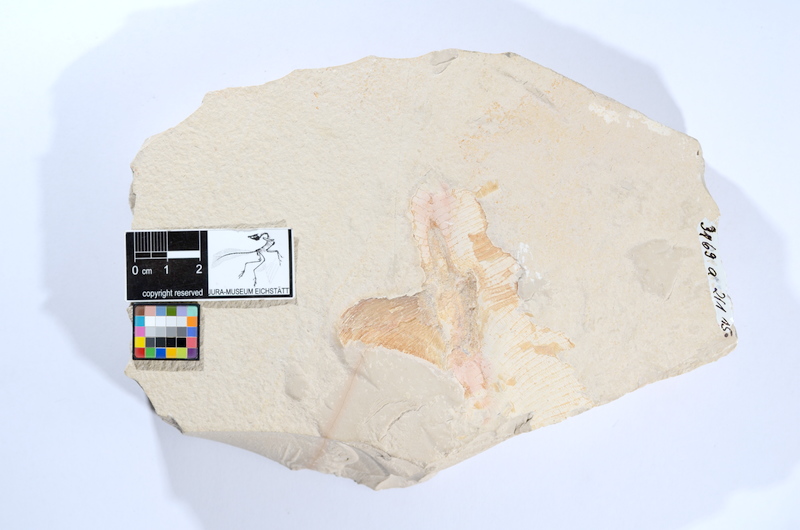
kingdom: Animalia
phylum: Chordata
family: Pachycormidae
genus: Sauropsis
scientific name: Sauropsis
